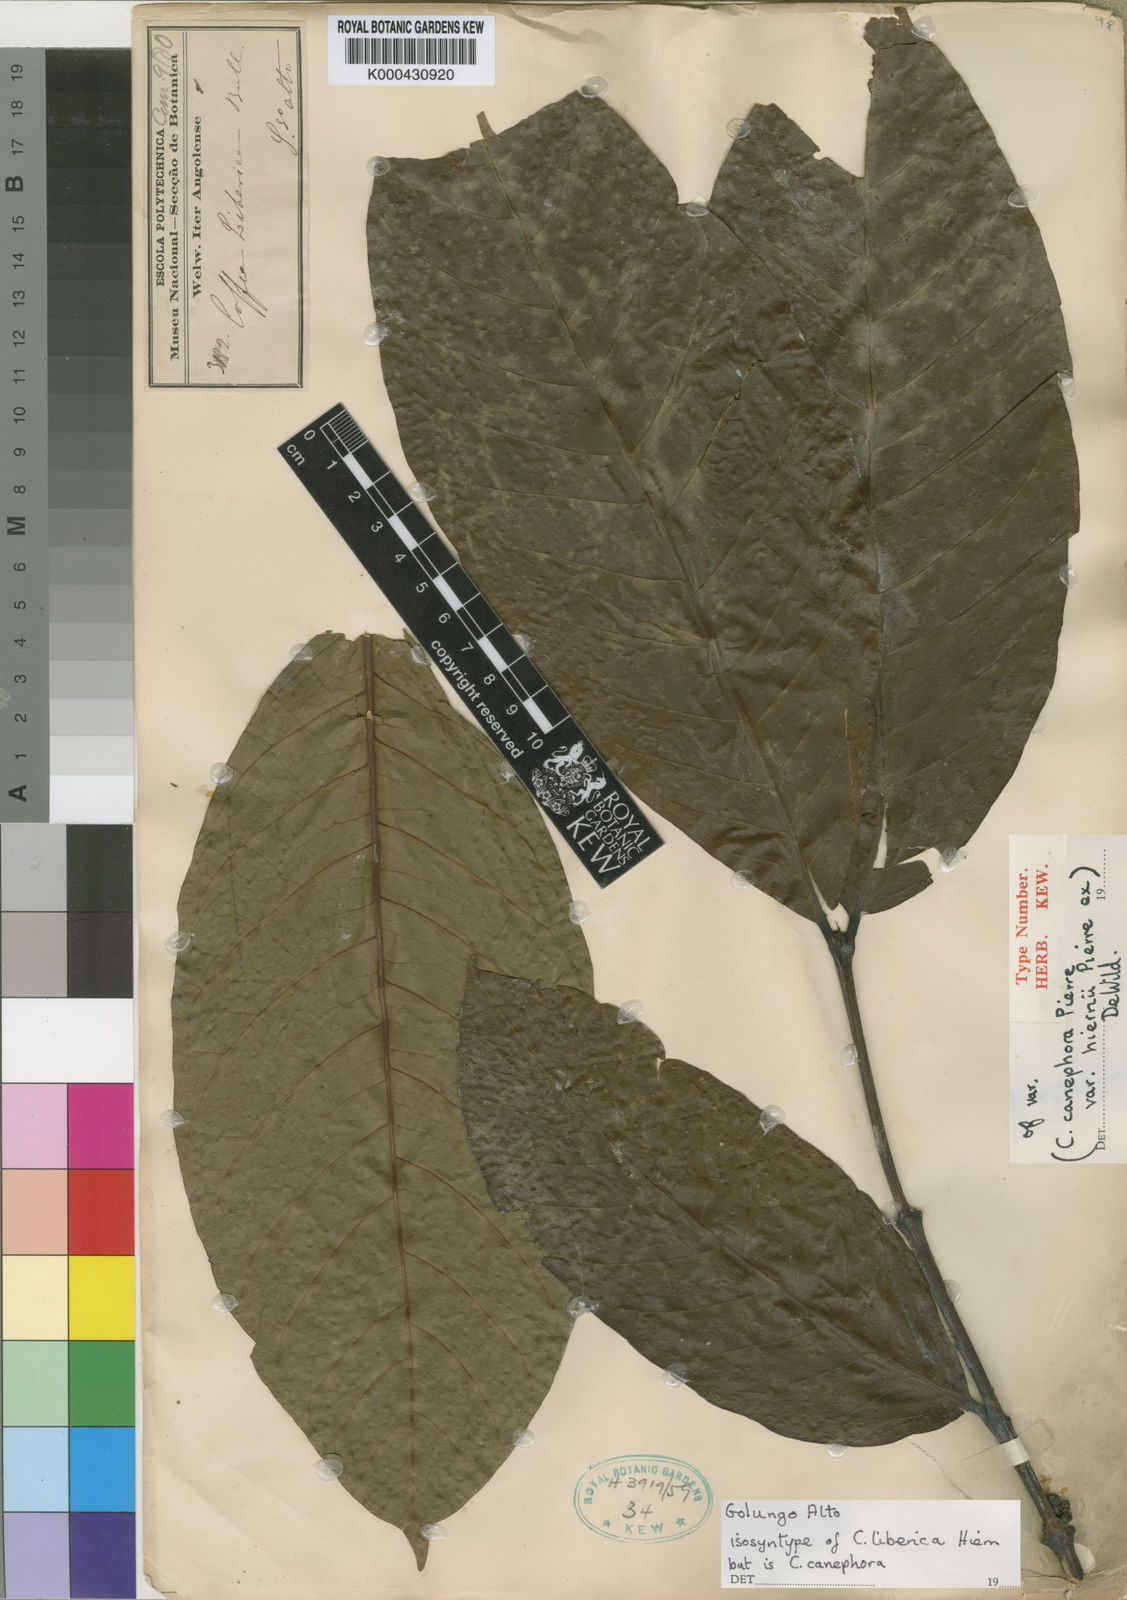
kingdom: Plantae
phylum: Tracheophyta
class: Magnoliopsida
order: Gentianales
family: Rubiaceae
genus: Coffea
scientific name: Coffea canephora
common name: Robusta coffee
